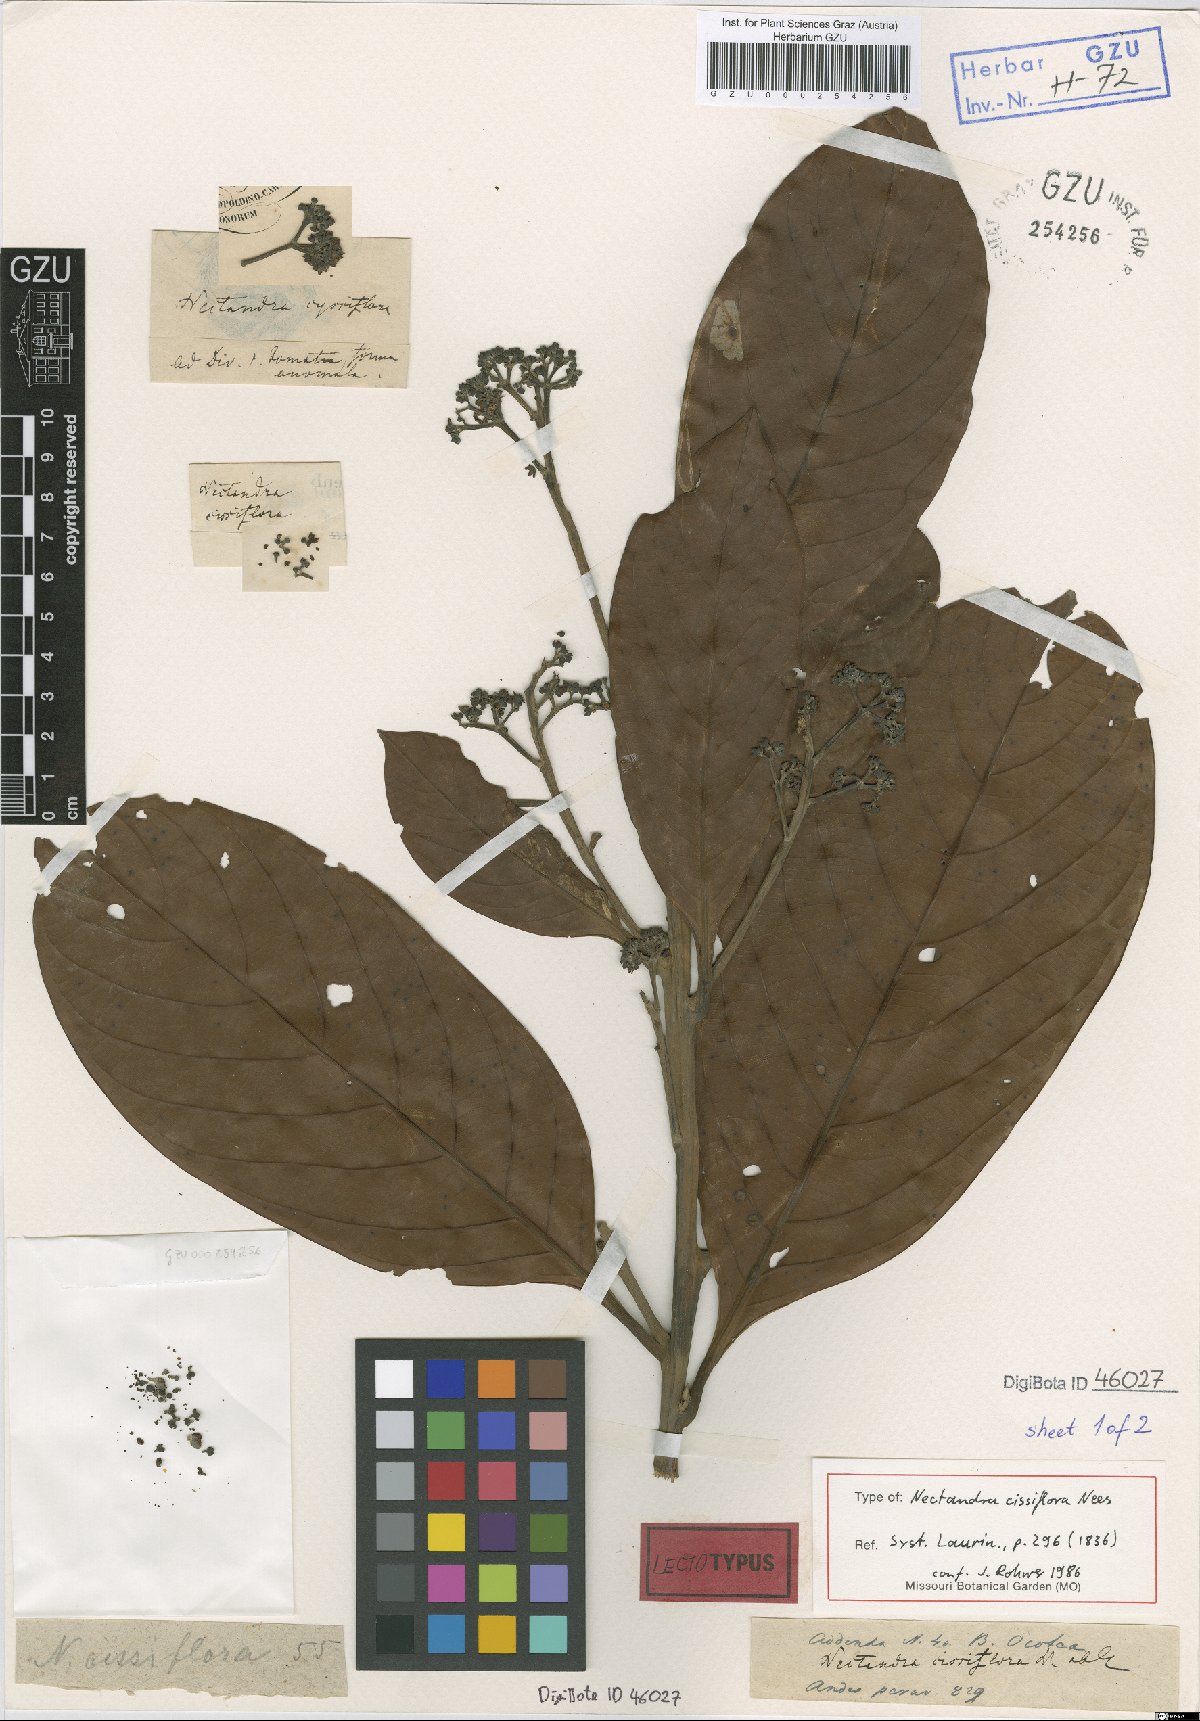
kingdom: Plantae
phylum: Tracheophyta
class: Magnoliopsida
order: Laurales
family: Lauraceae
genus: Nectandra
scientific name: Nectandra cissiflora
